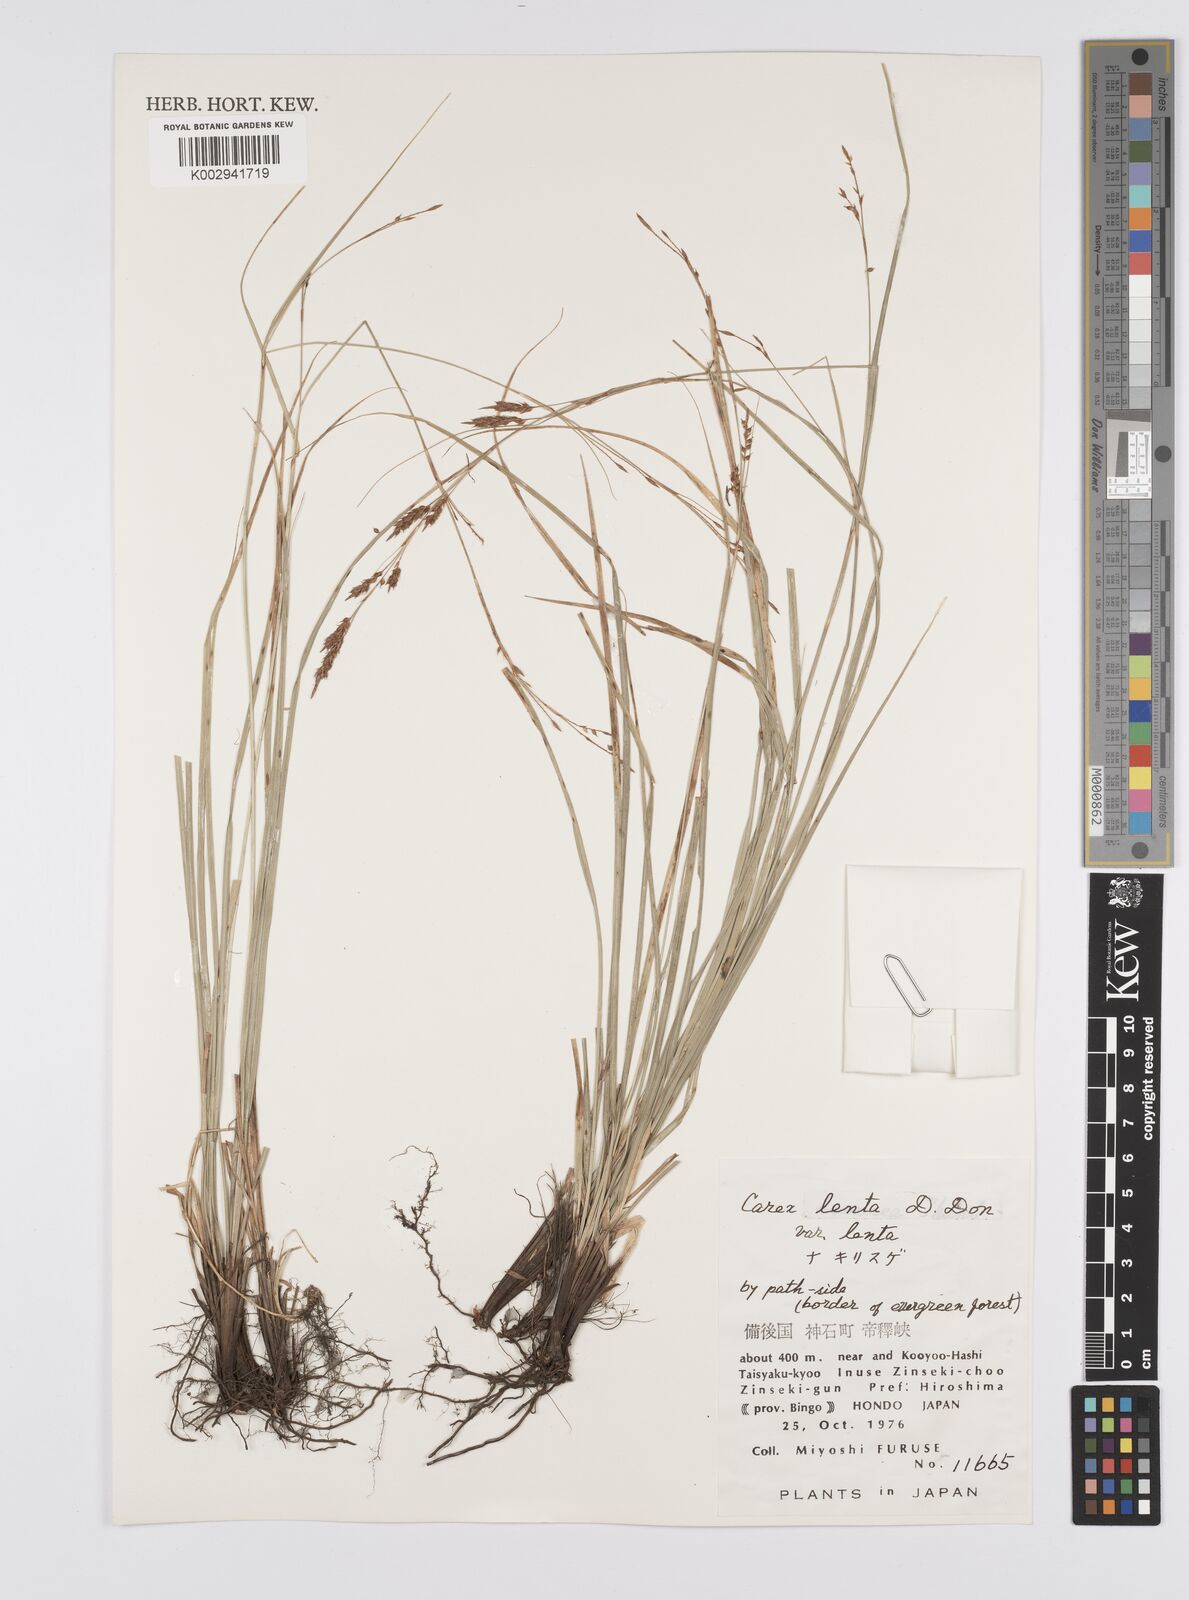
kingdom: Plantae
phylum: Tracheophyta
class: Liliopsida
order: Poales
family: Cyperaceae
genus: Carex
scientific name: Carex brunnea
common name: Greater brown sedge
